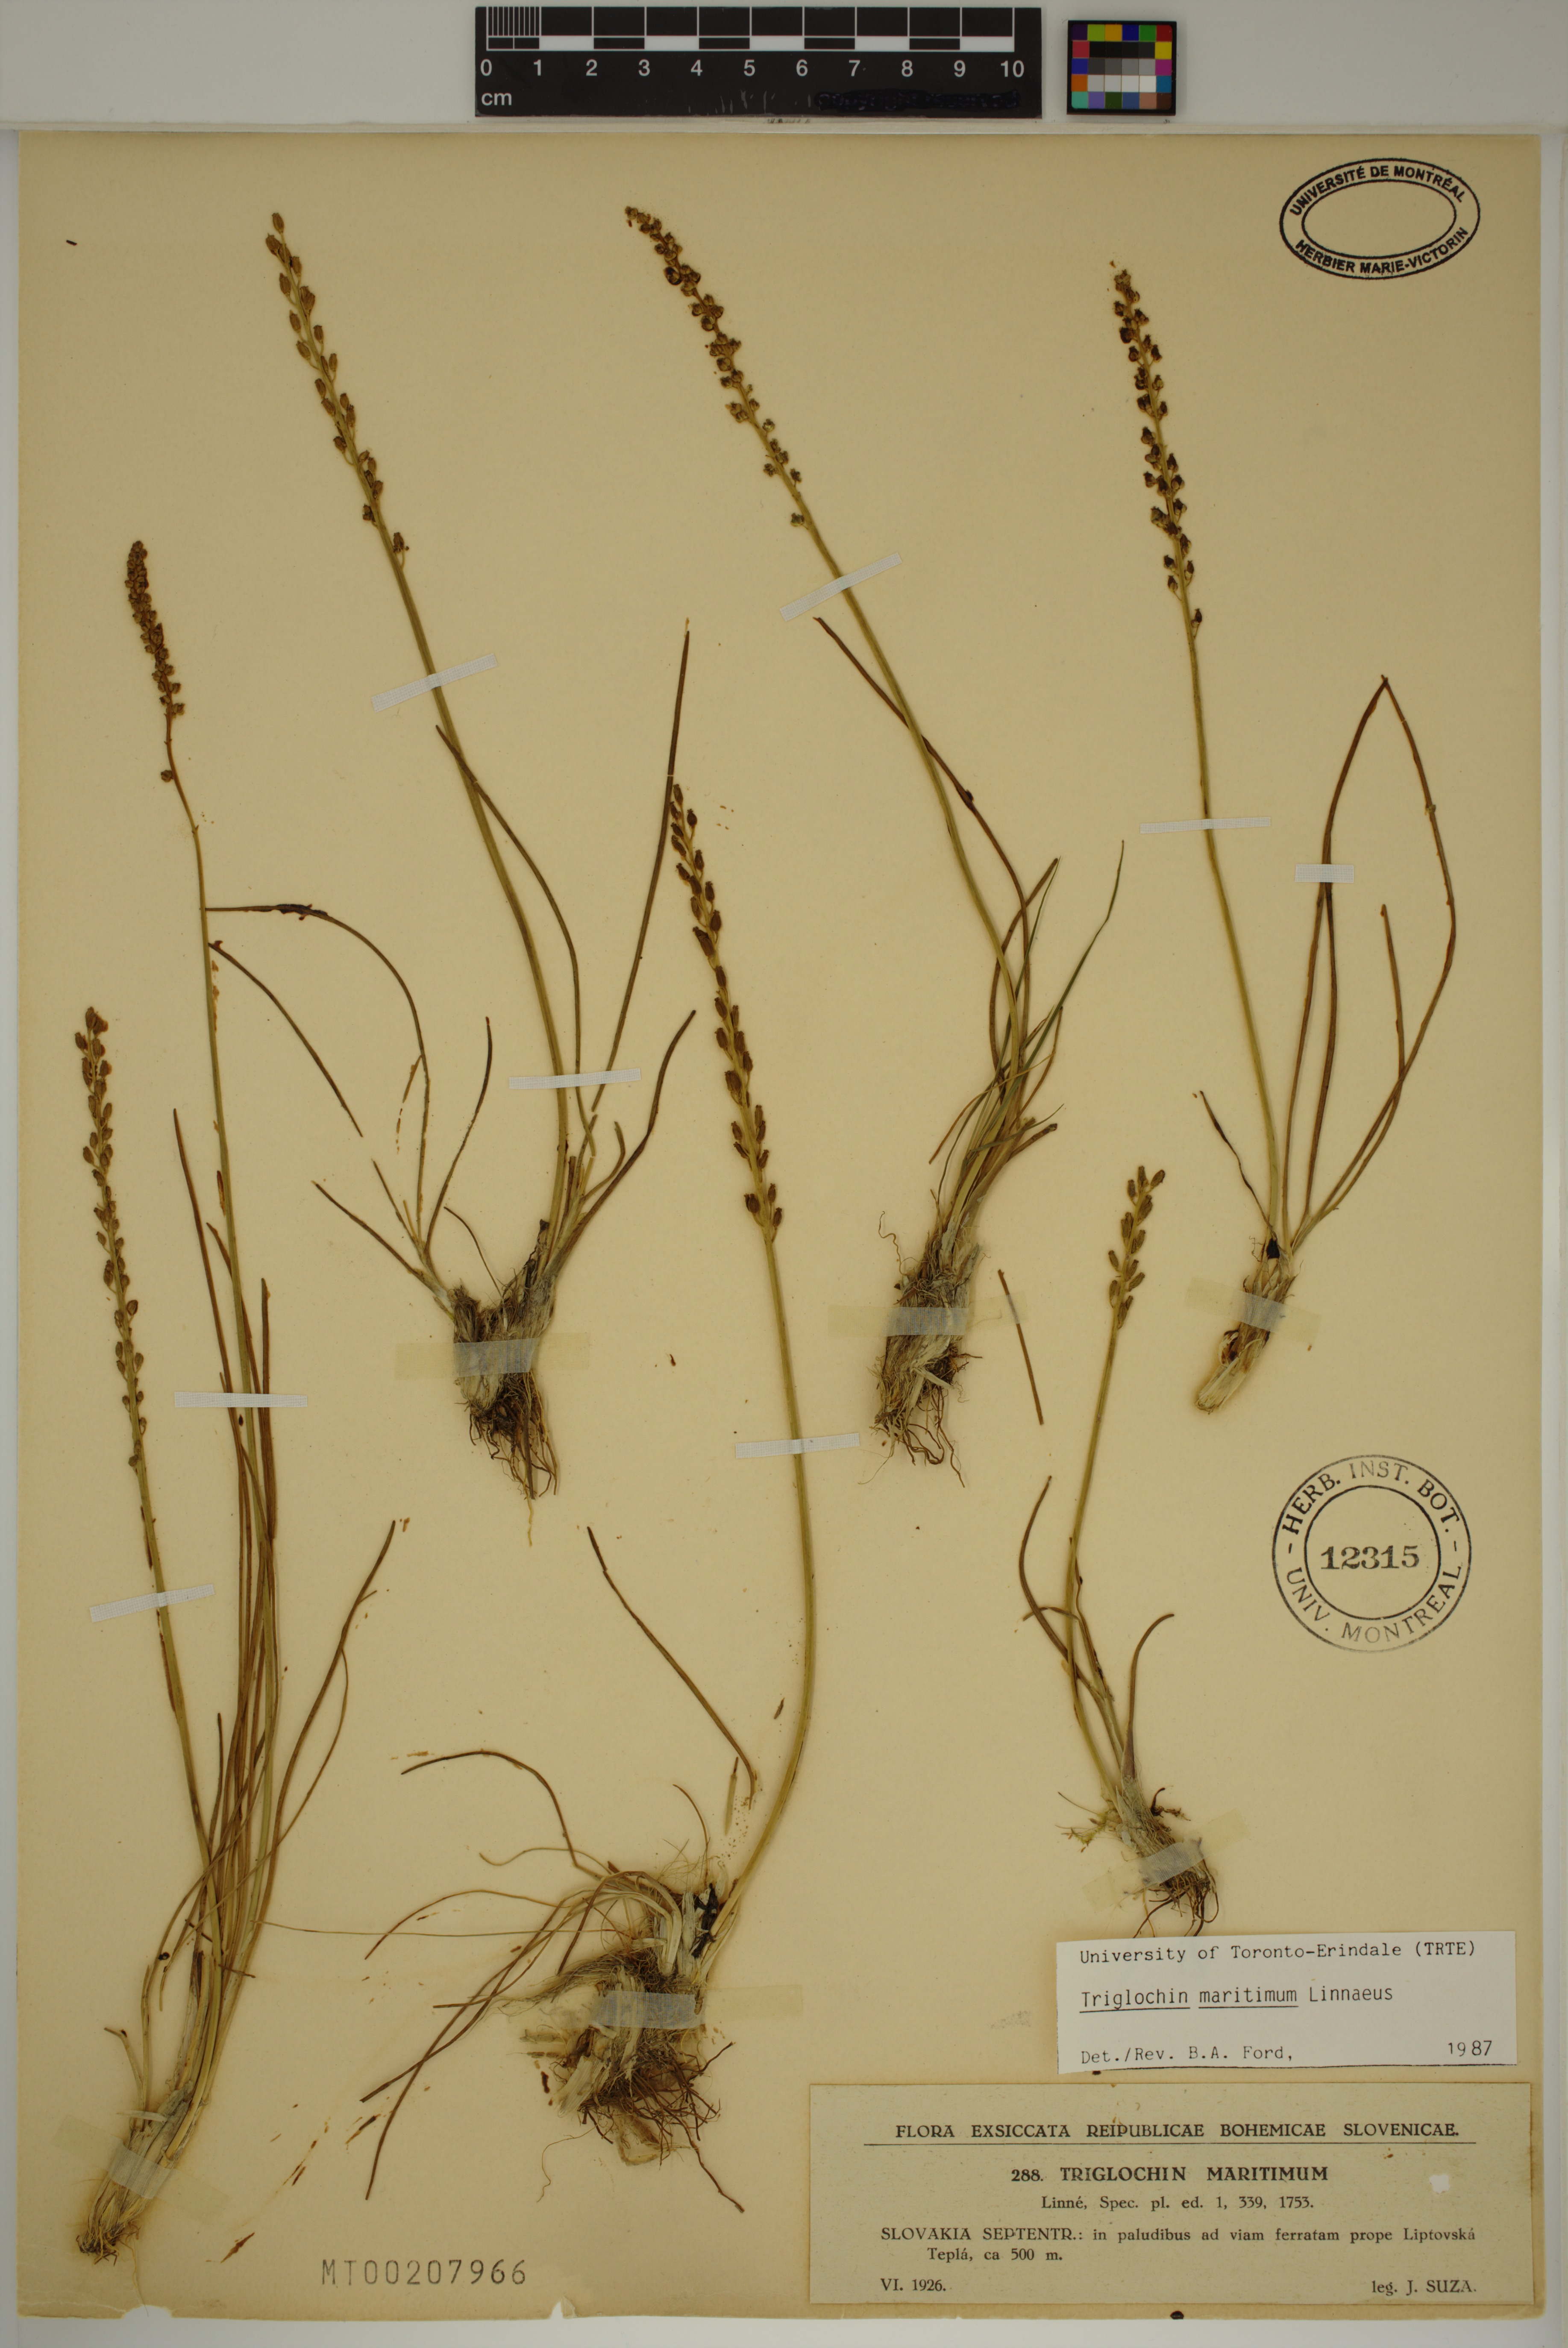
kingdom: Plantae
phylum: Tracheophyta
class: Liliopsida
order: Alismatales
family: Juncaginaceae
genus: Triglochin
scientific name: Triglochin maritima
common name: Sea arrowgrass
